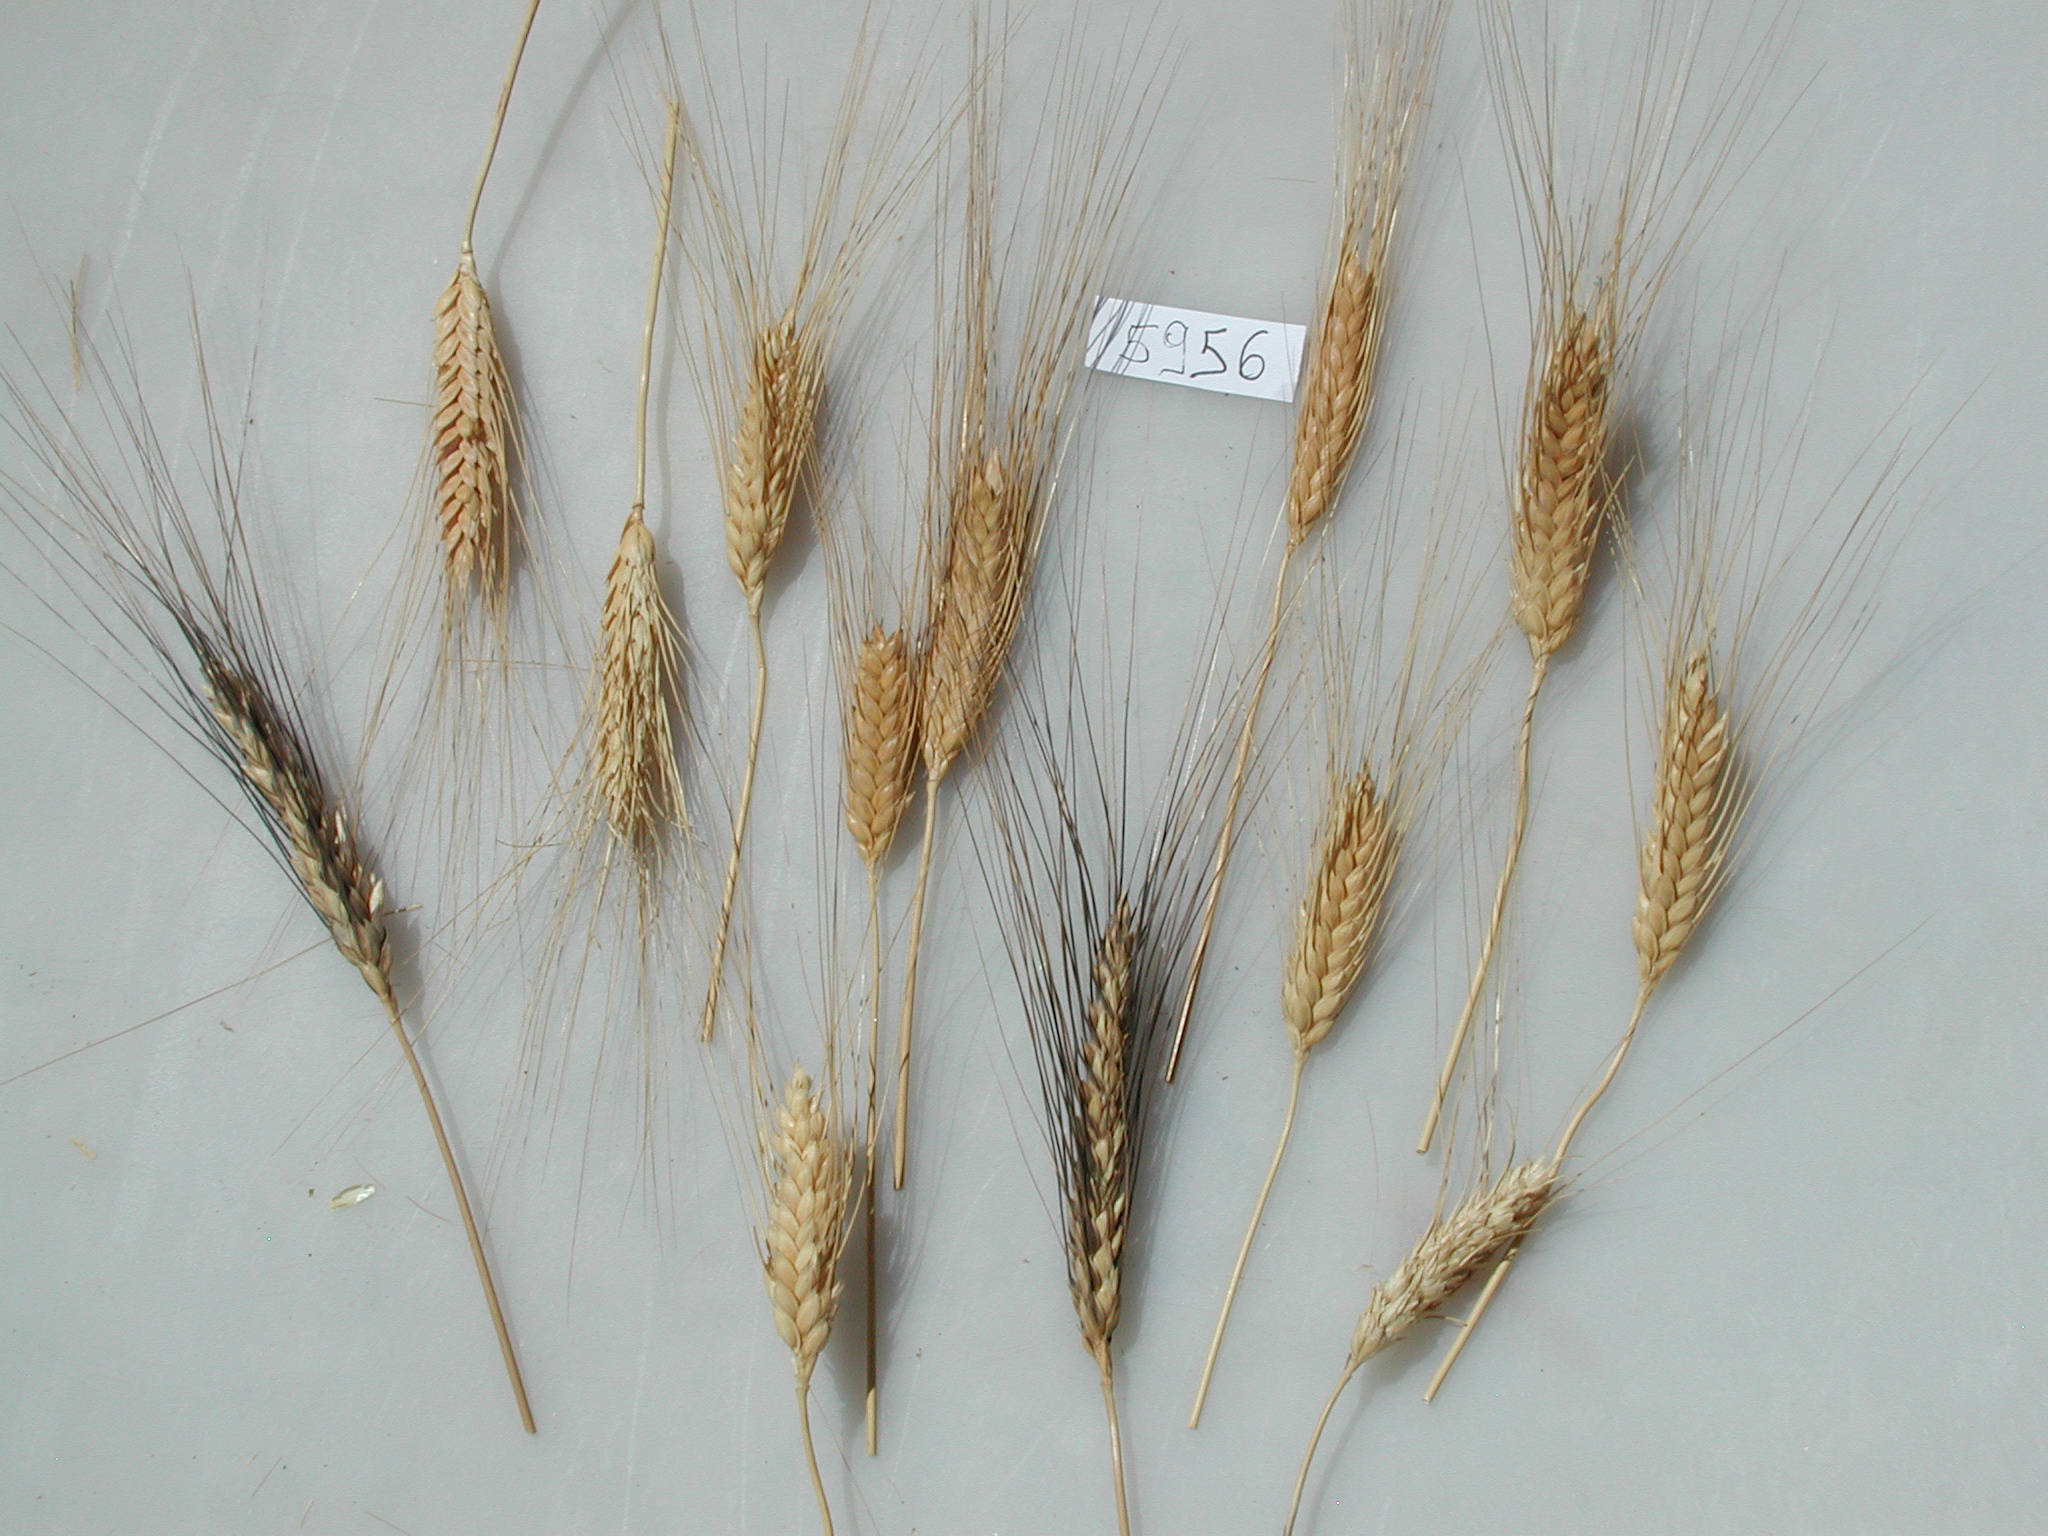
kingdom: Plantae
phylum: Tracheophyta
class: Liliopsida
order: Poales
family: Poaceae
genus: Triticum
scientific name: Triticum turgidum
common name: Wheat
